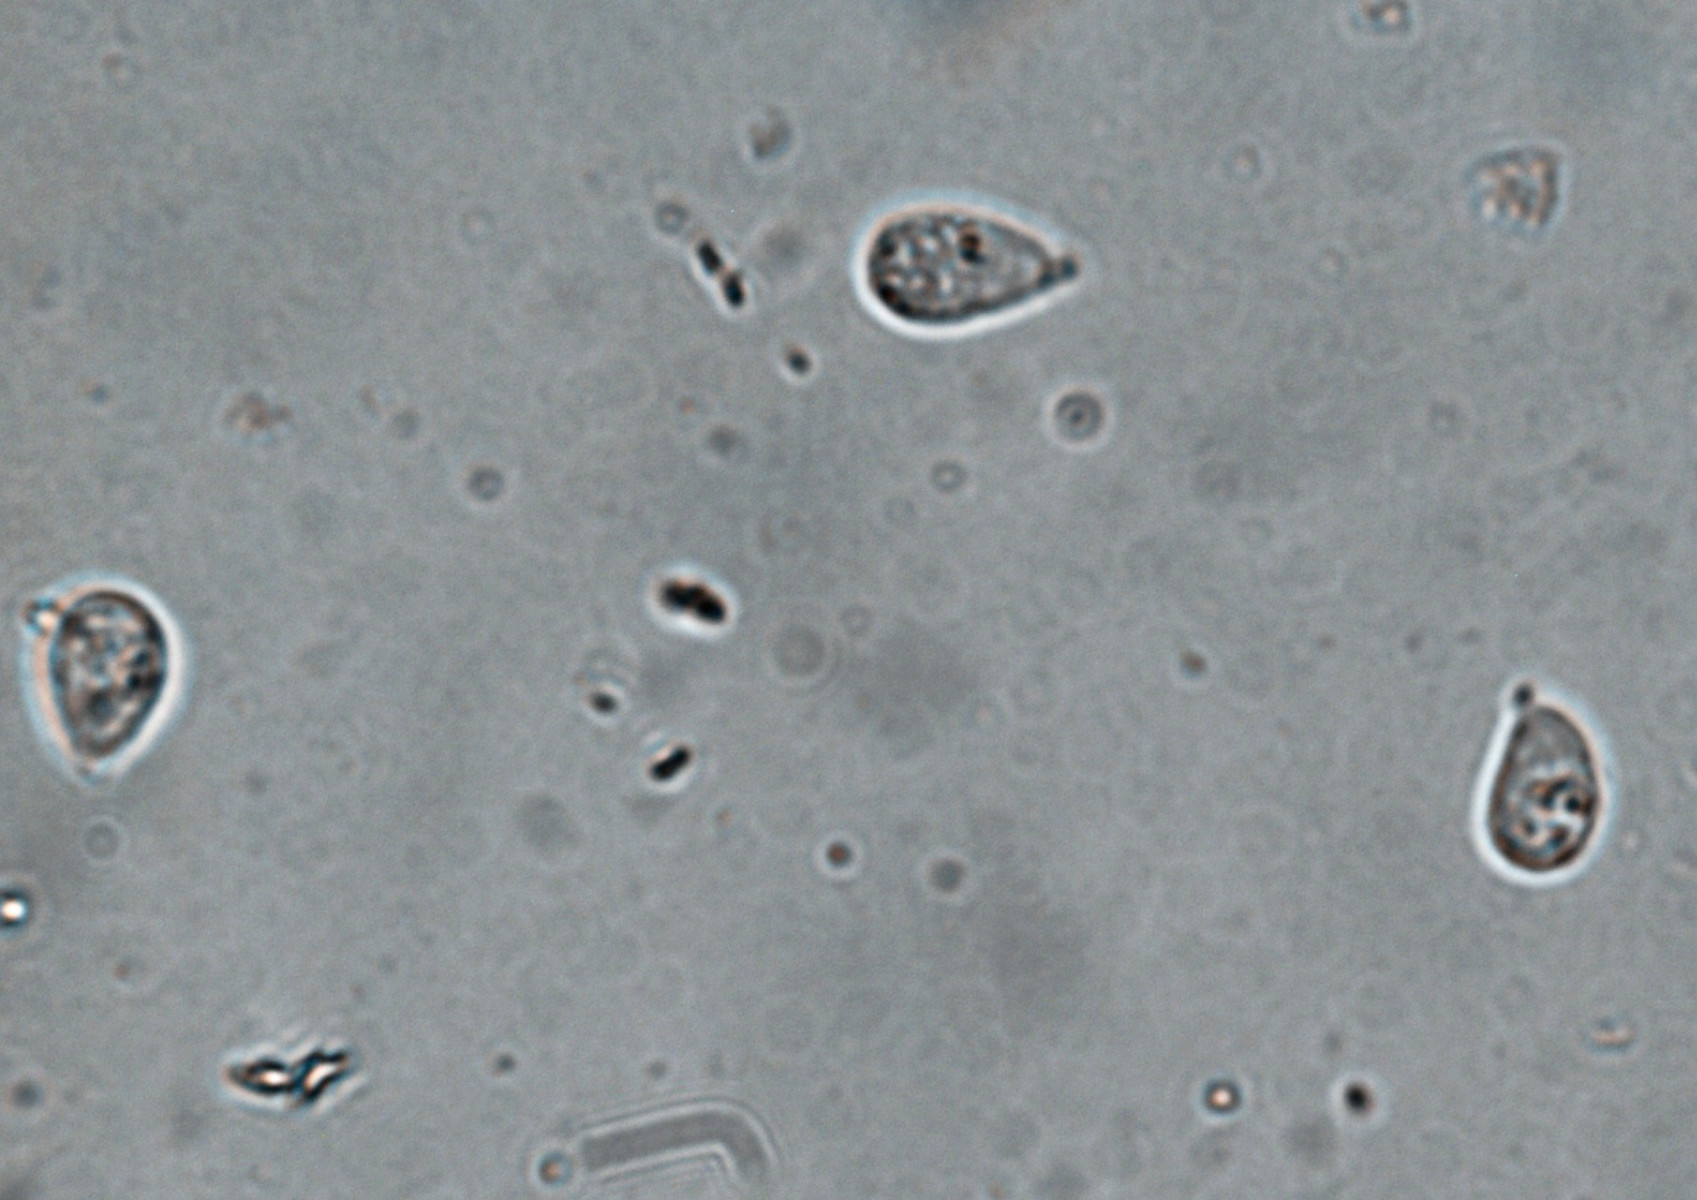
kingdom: Fungi
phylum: Basidiomycota
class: Agaricomycetes
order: Agaricales
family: Hygrophoraceae
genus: Arrhenia
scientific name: Arrhenia obscurata
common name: hede-fontænehat
